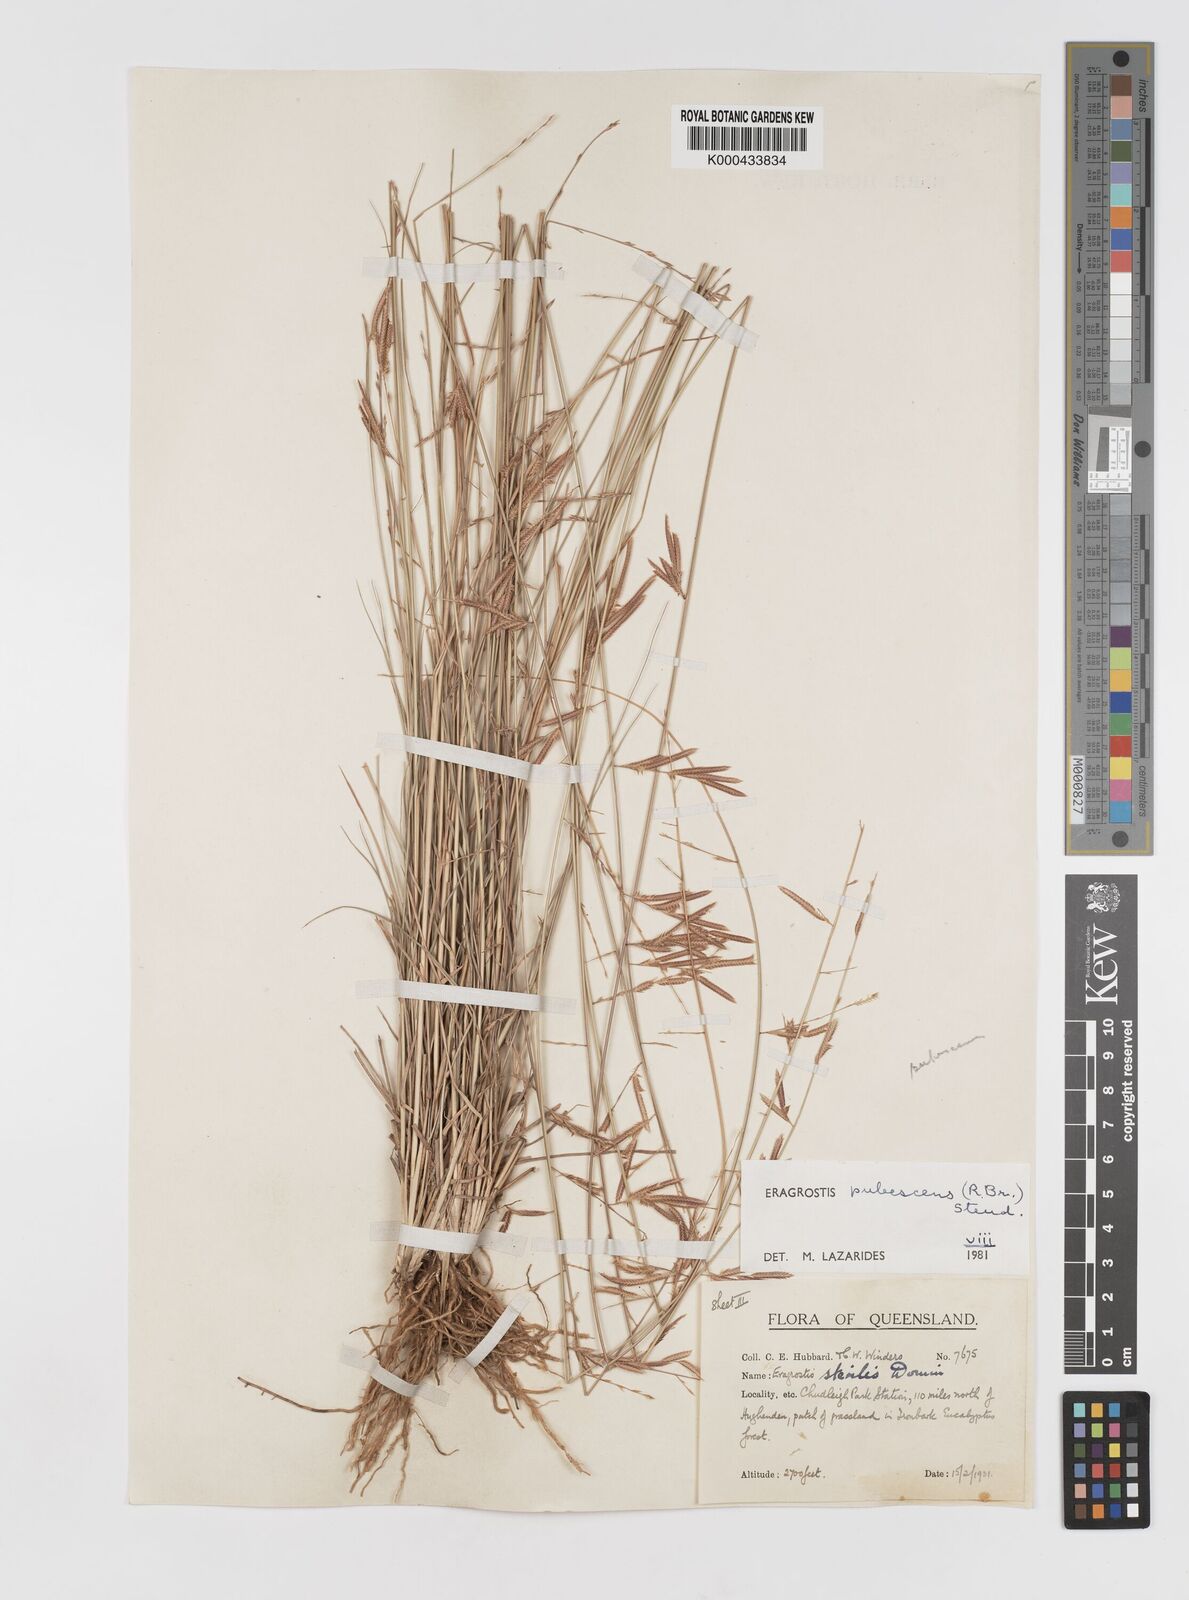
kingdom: Plantae
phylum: Tracheophyta
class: Liliopsida
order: Poales
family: Poaceae
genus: Eragrostis
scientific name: Eragrostis pubescens
